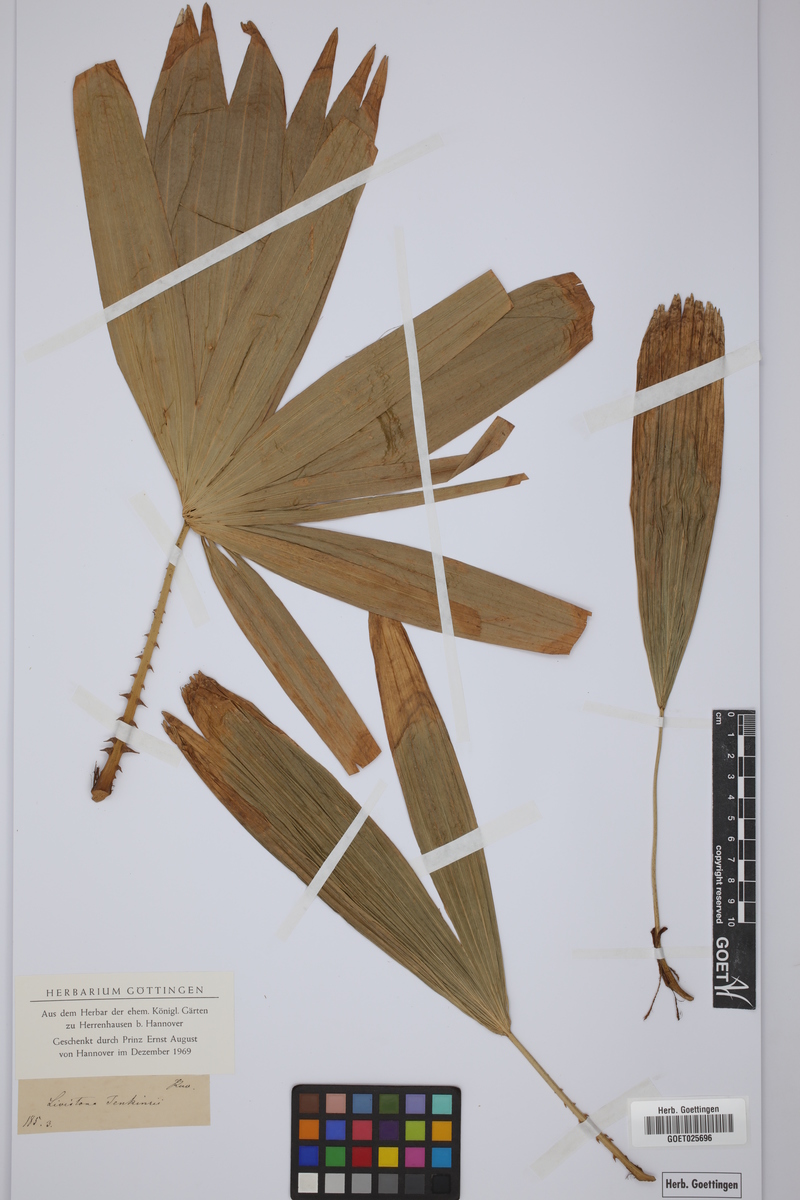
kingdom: Plantae
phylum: Tracheophyta
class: Liliopsida
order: Arecales
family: Arecaceae
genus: Livistona
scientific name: Livistona jenkinsiana
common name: Himalayan fan palm
